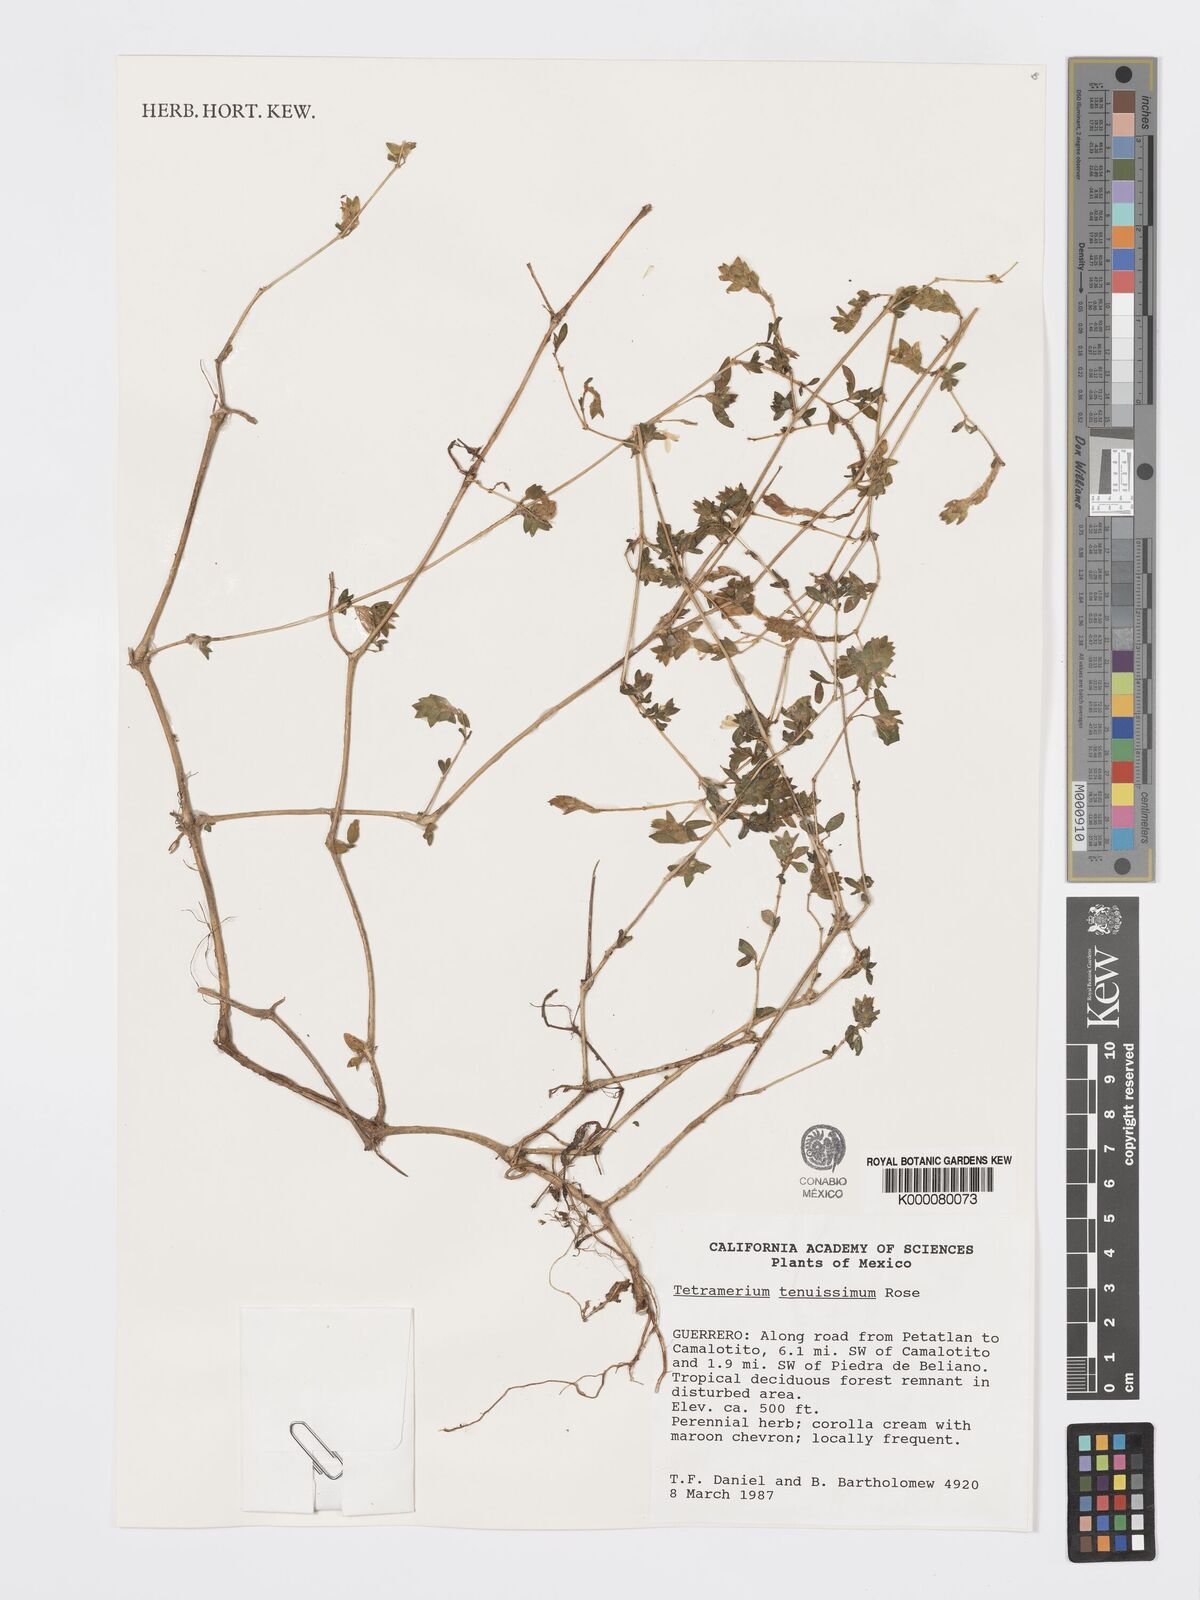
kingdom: Plantae
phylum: Tracheophyta
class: Magnoliopsida
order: Lamiales
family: Acanthaceae
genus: Tetramerium
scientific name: Tetramerium tenuissimum
